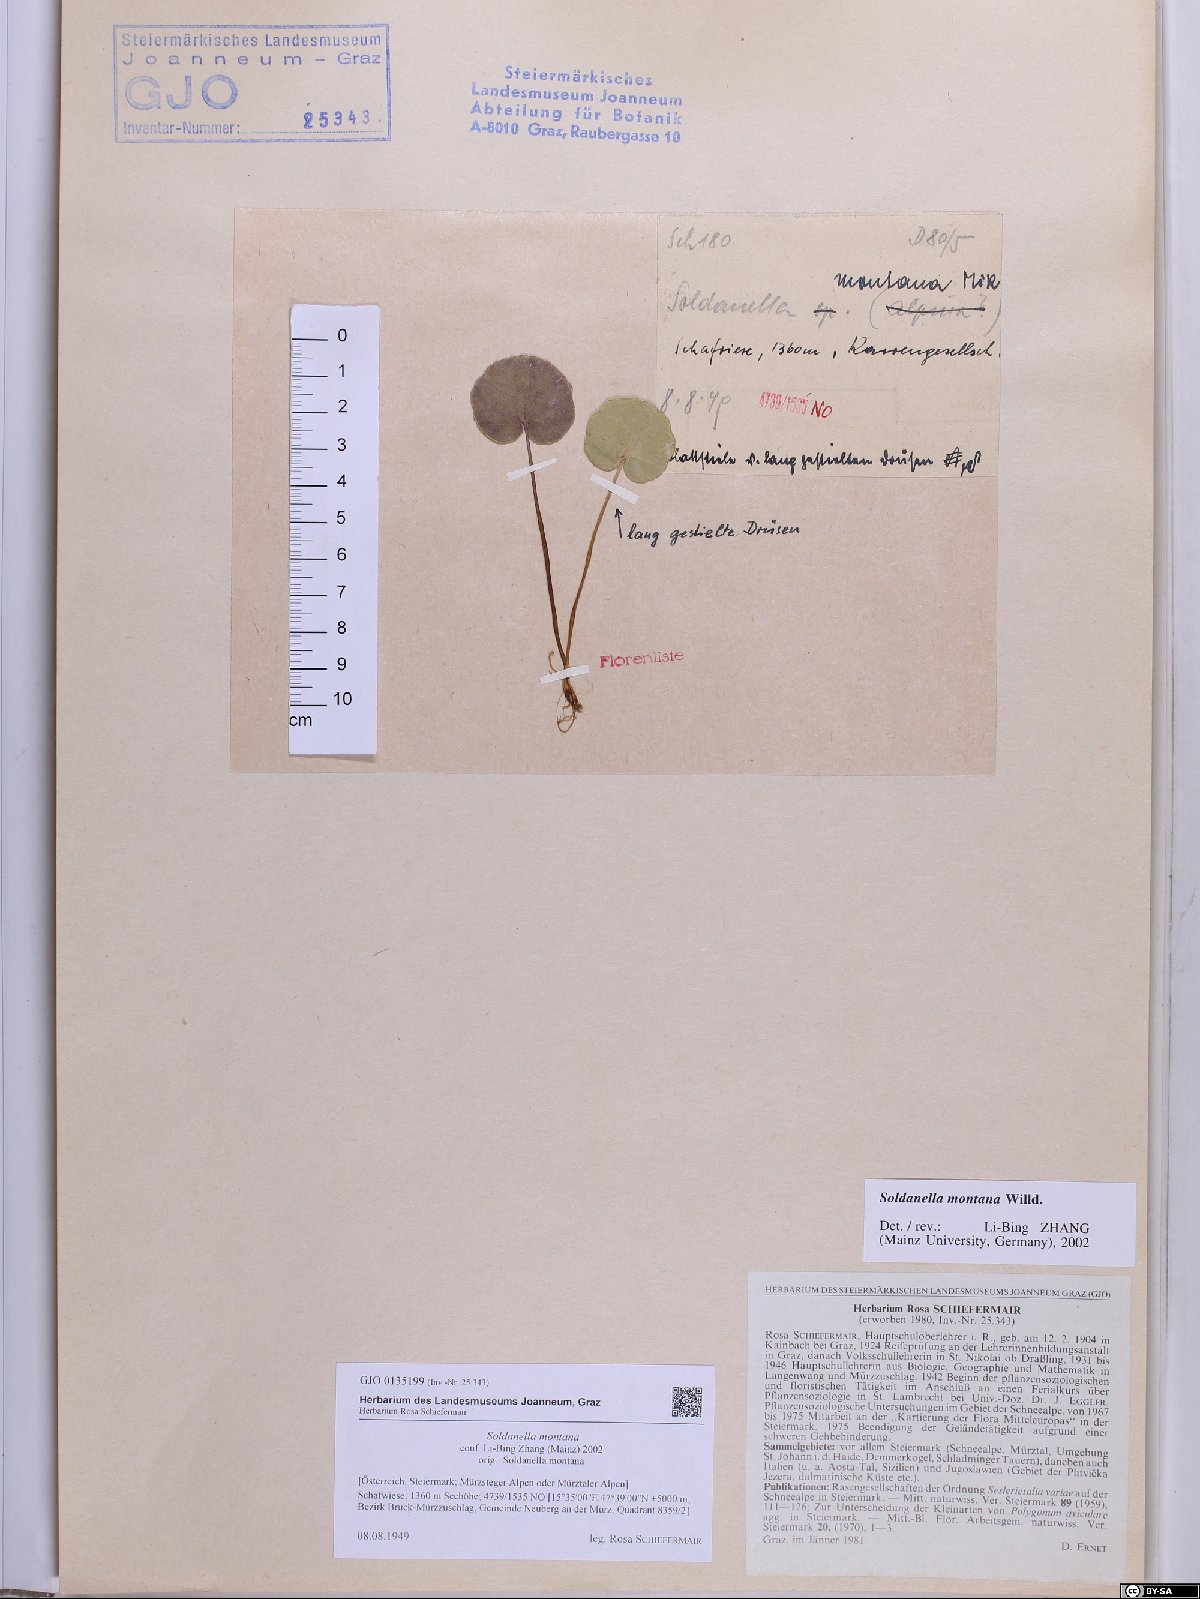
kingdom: Plantae
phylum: Tracheophyta
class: Magnoliopsida
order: Ericales
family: Primulaceae
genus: Soldanella
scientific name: Soldanella montana
